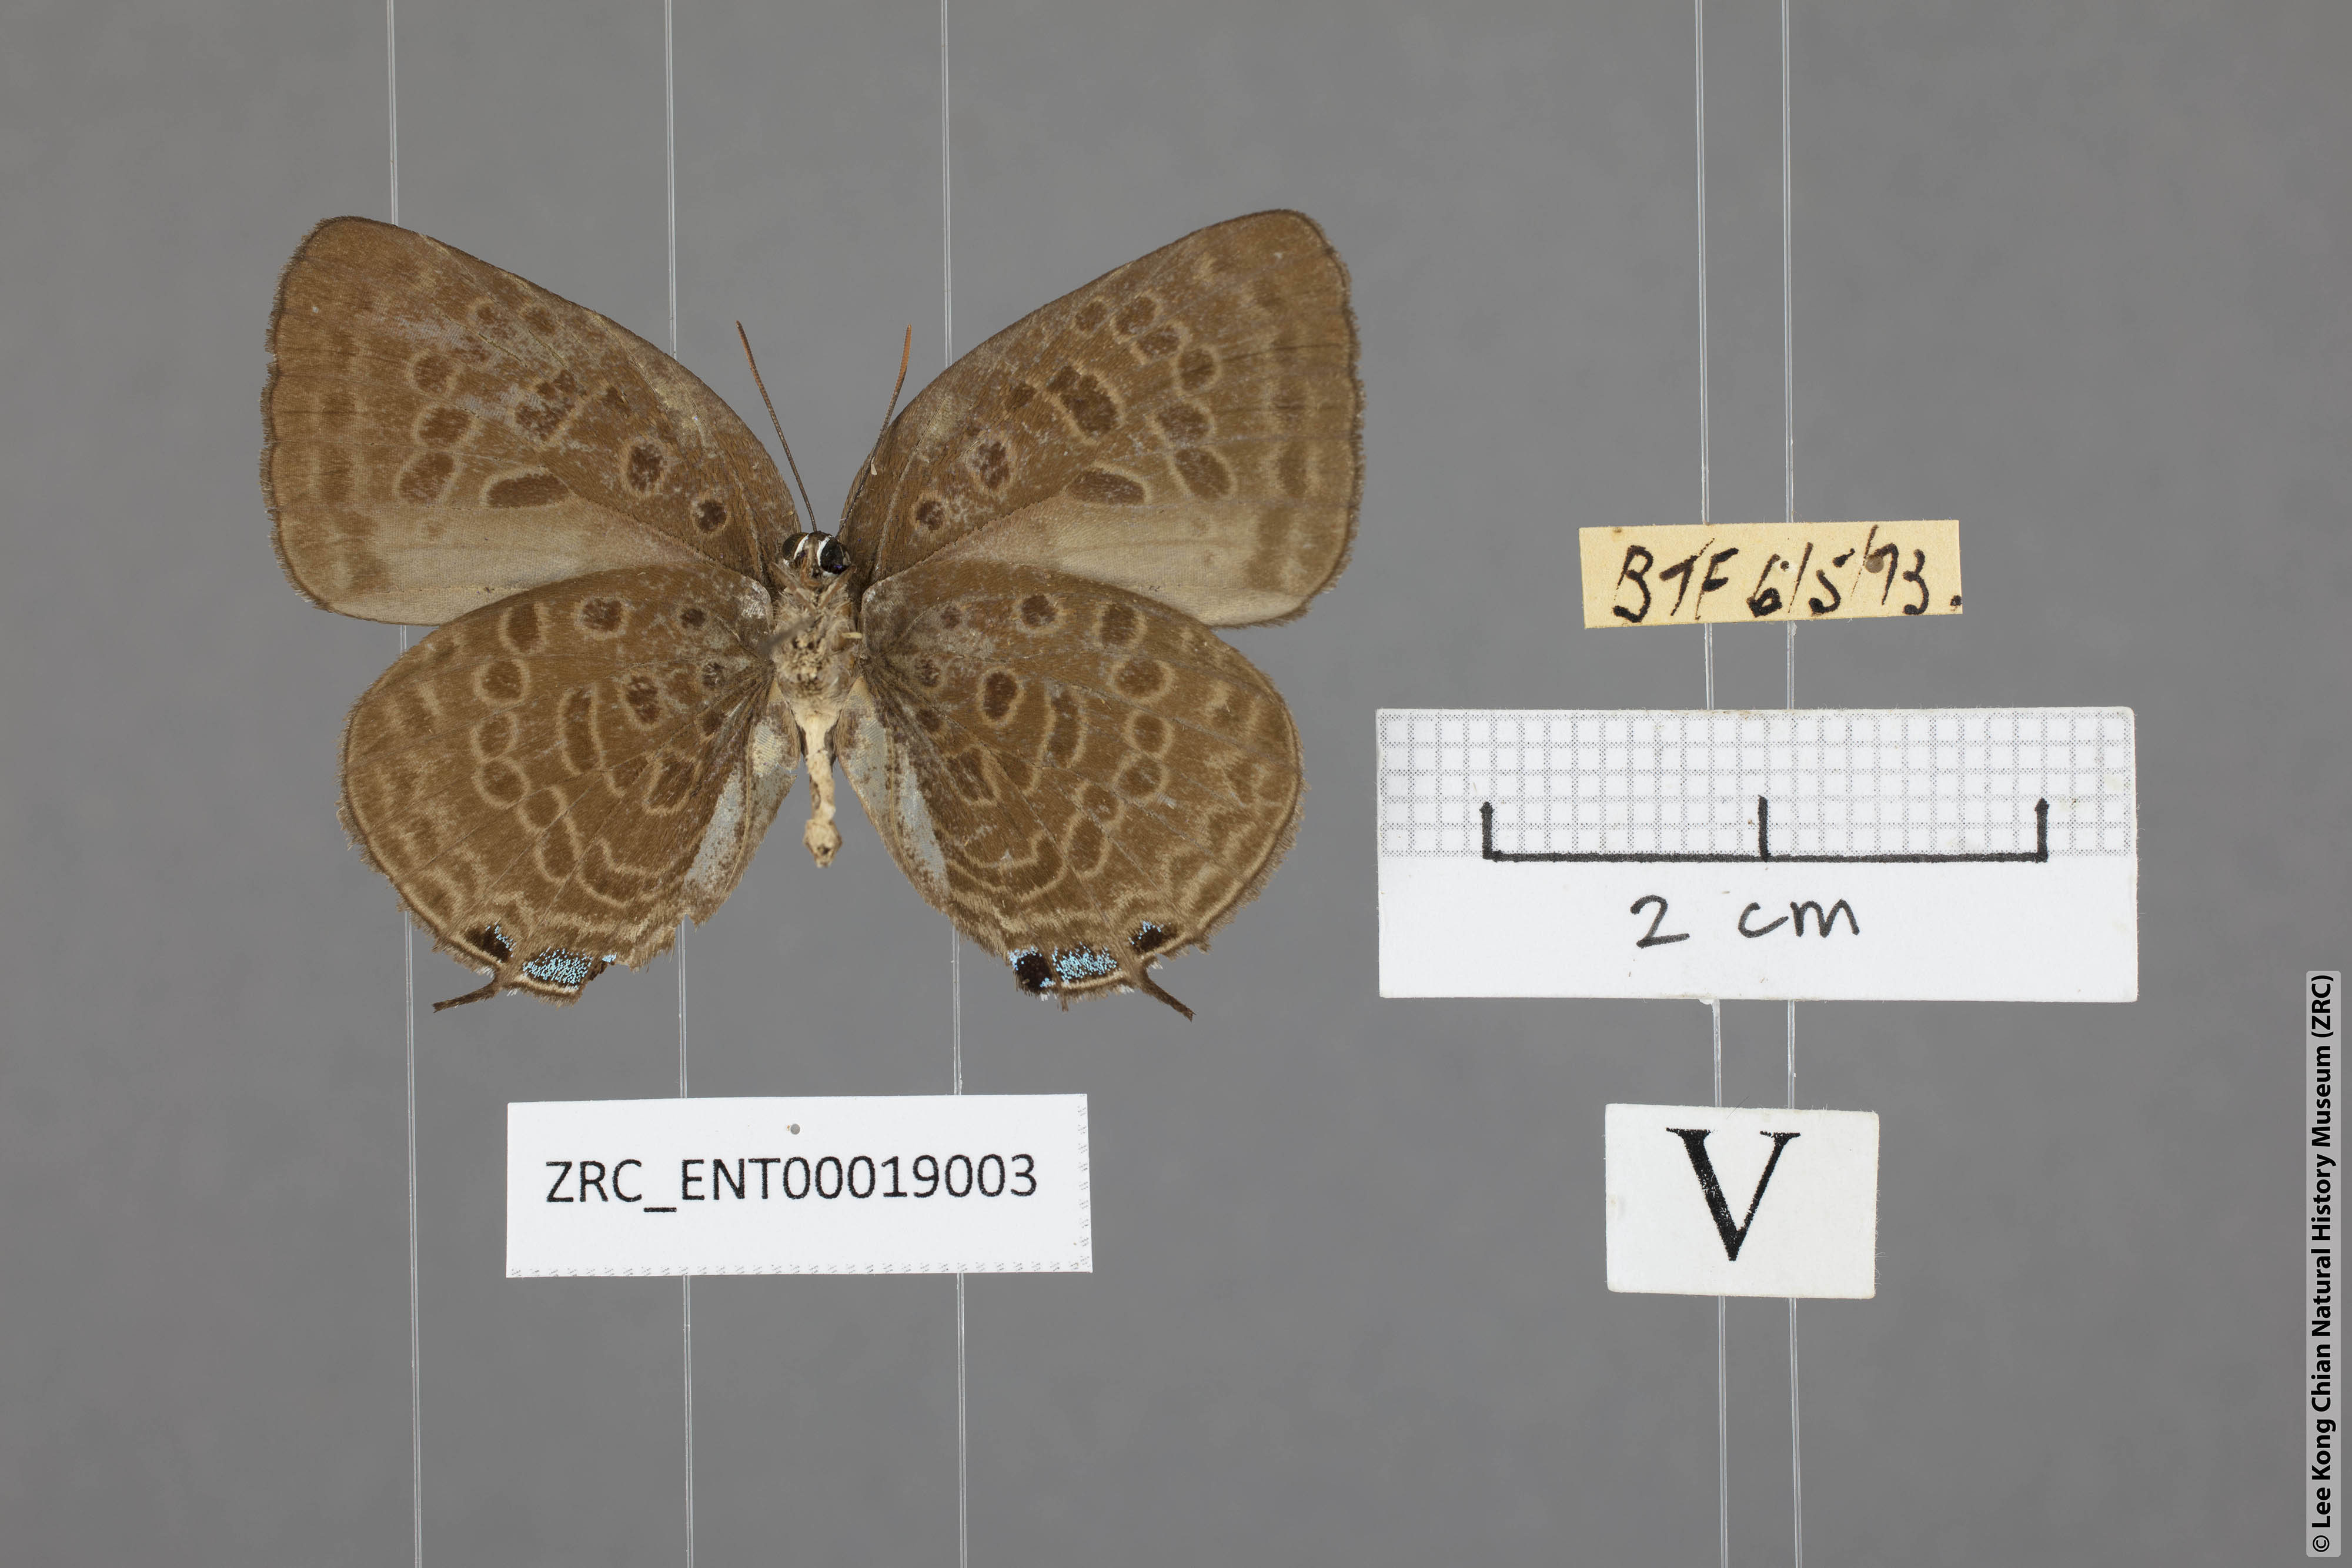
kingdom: Animalia
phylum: Arthropoda
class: Insecta
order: Lepidoptera
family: Lycaenidae
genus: Arhopala
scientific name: Arhopala aedias
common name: Large metallic oakblue
